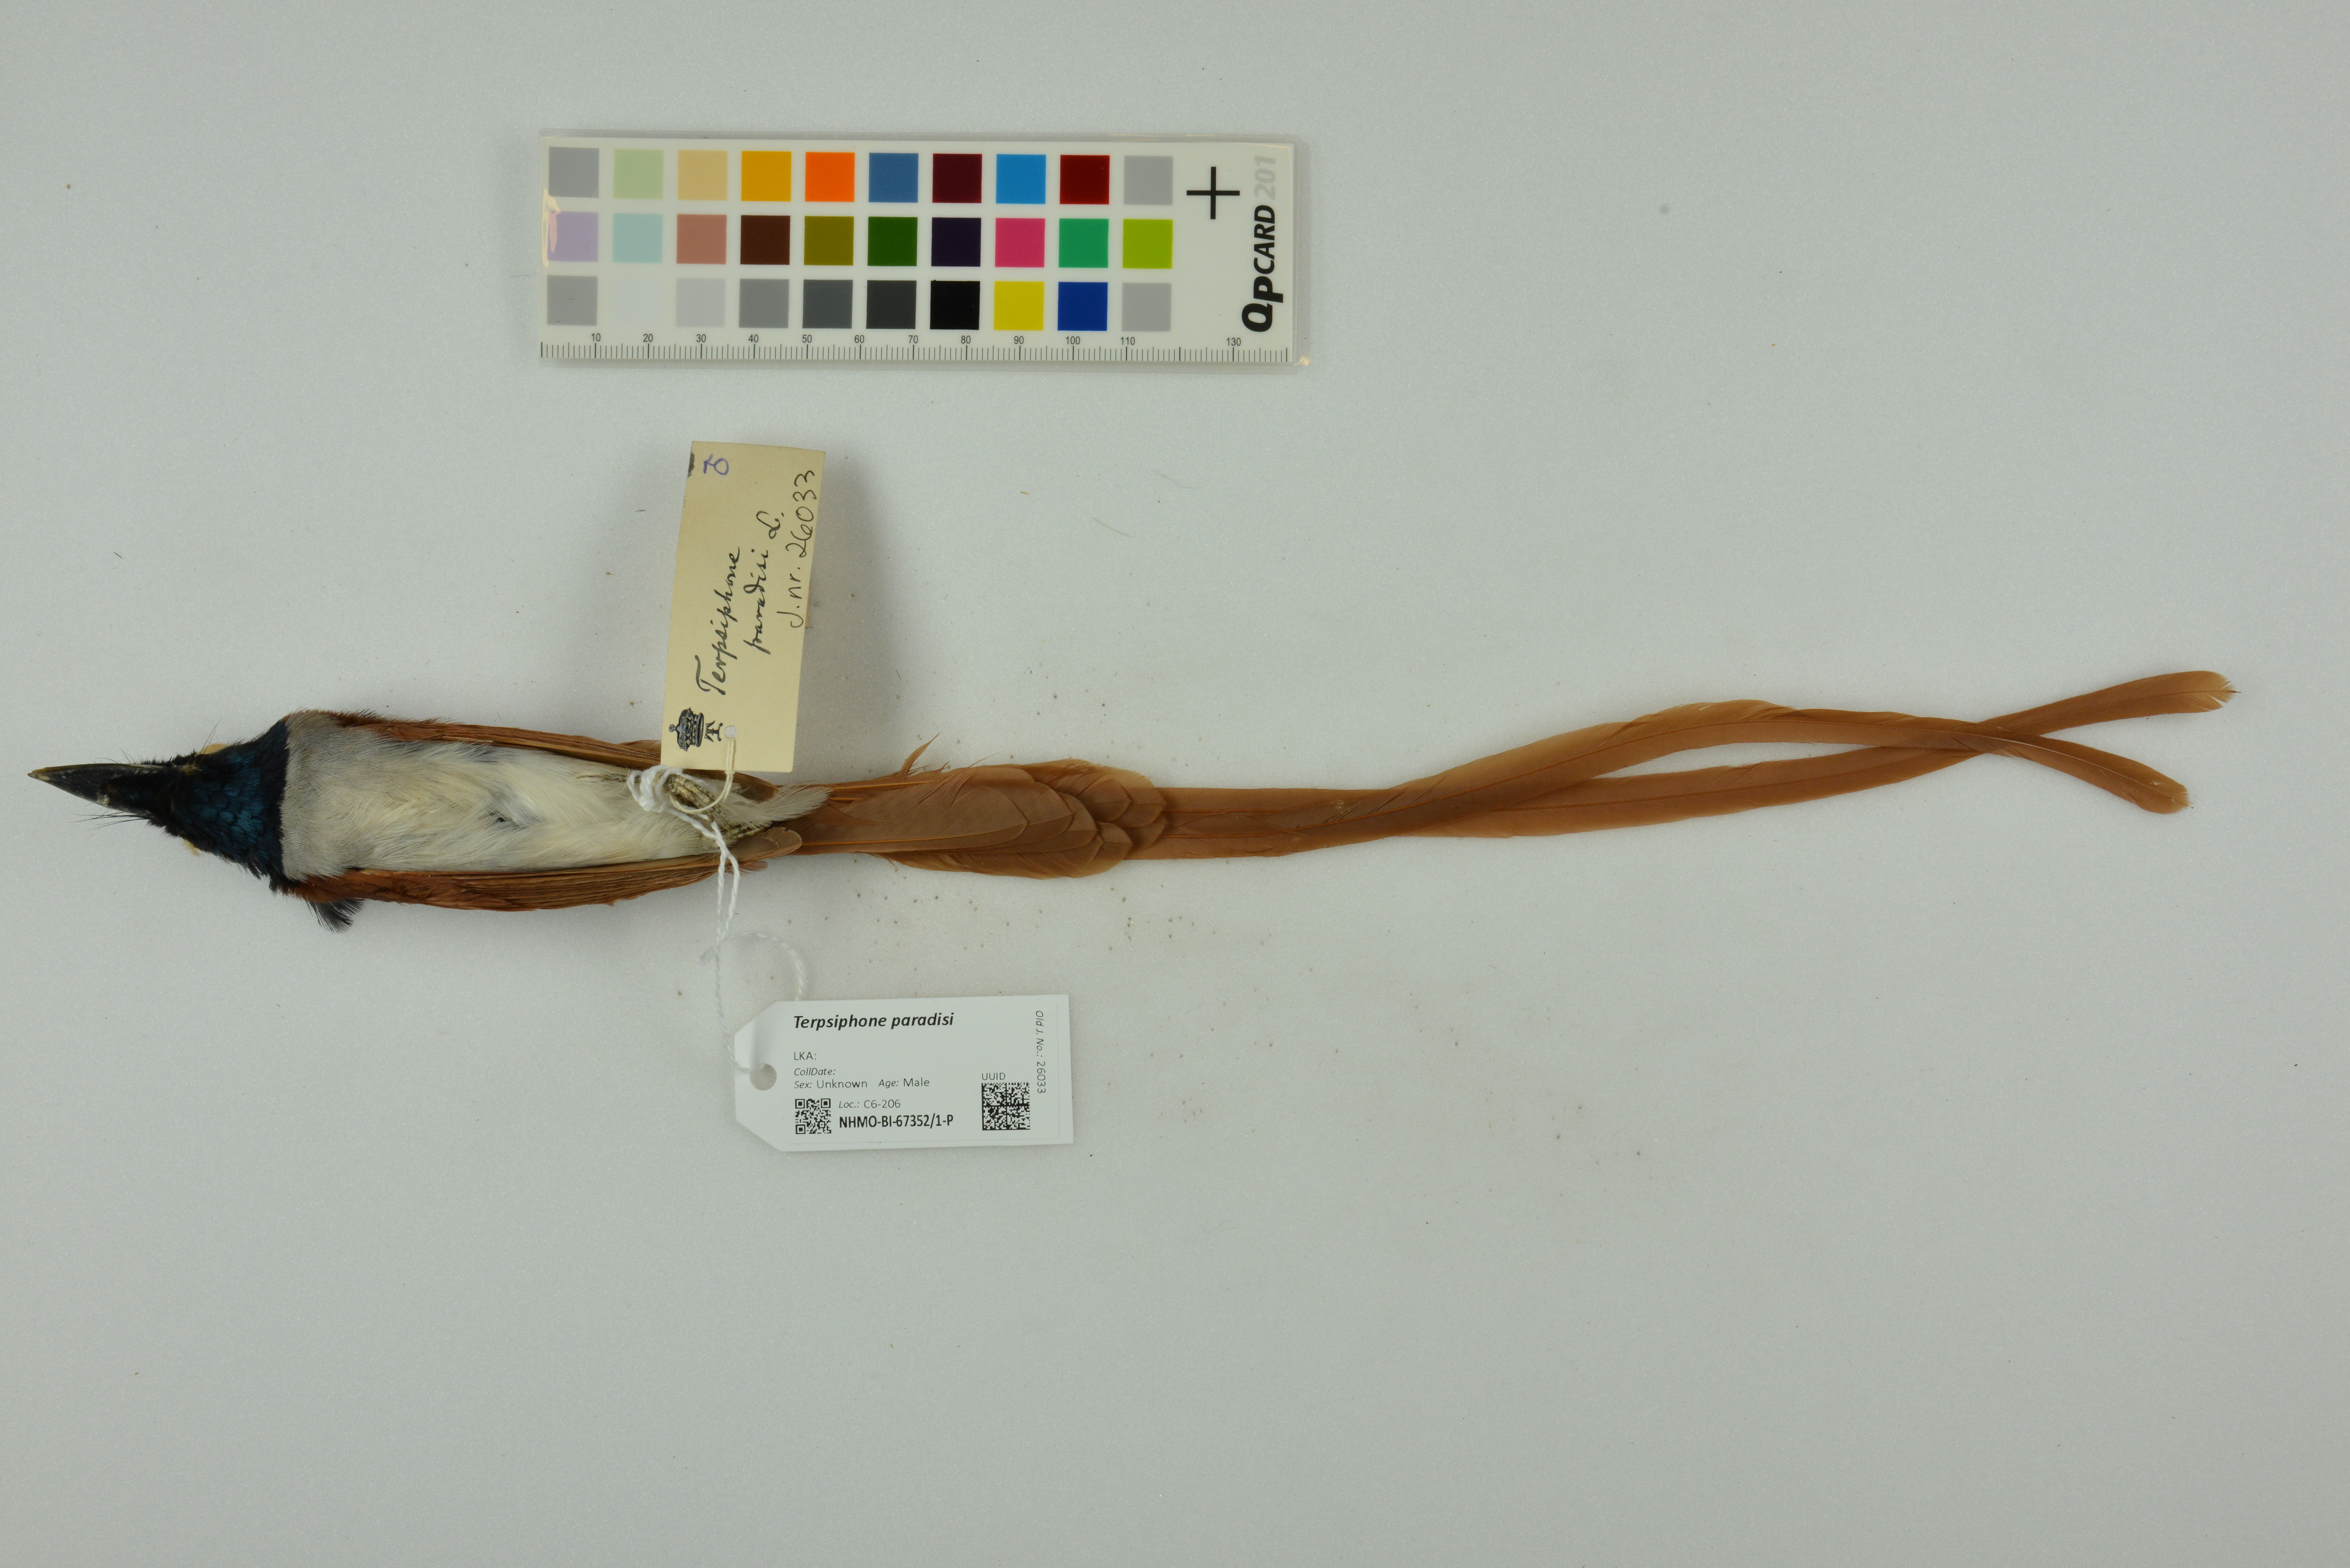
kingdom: Animalia
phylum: Chordata
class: Aves
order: Passeriformes
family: Monarchidae
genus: Terpsiphone
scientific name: Terpsiphone paradisi
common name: Indian paradise flycatcher
